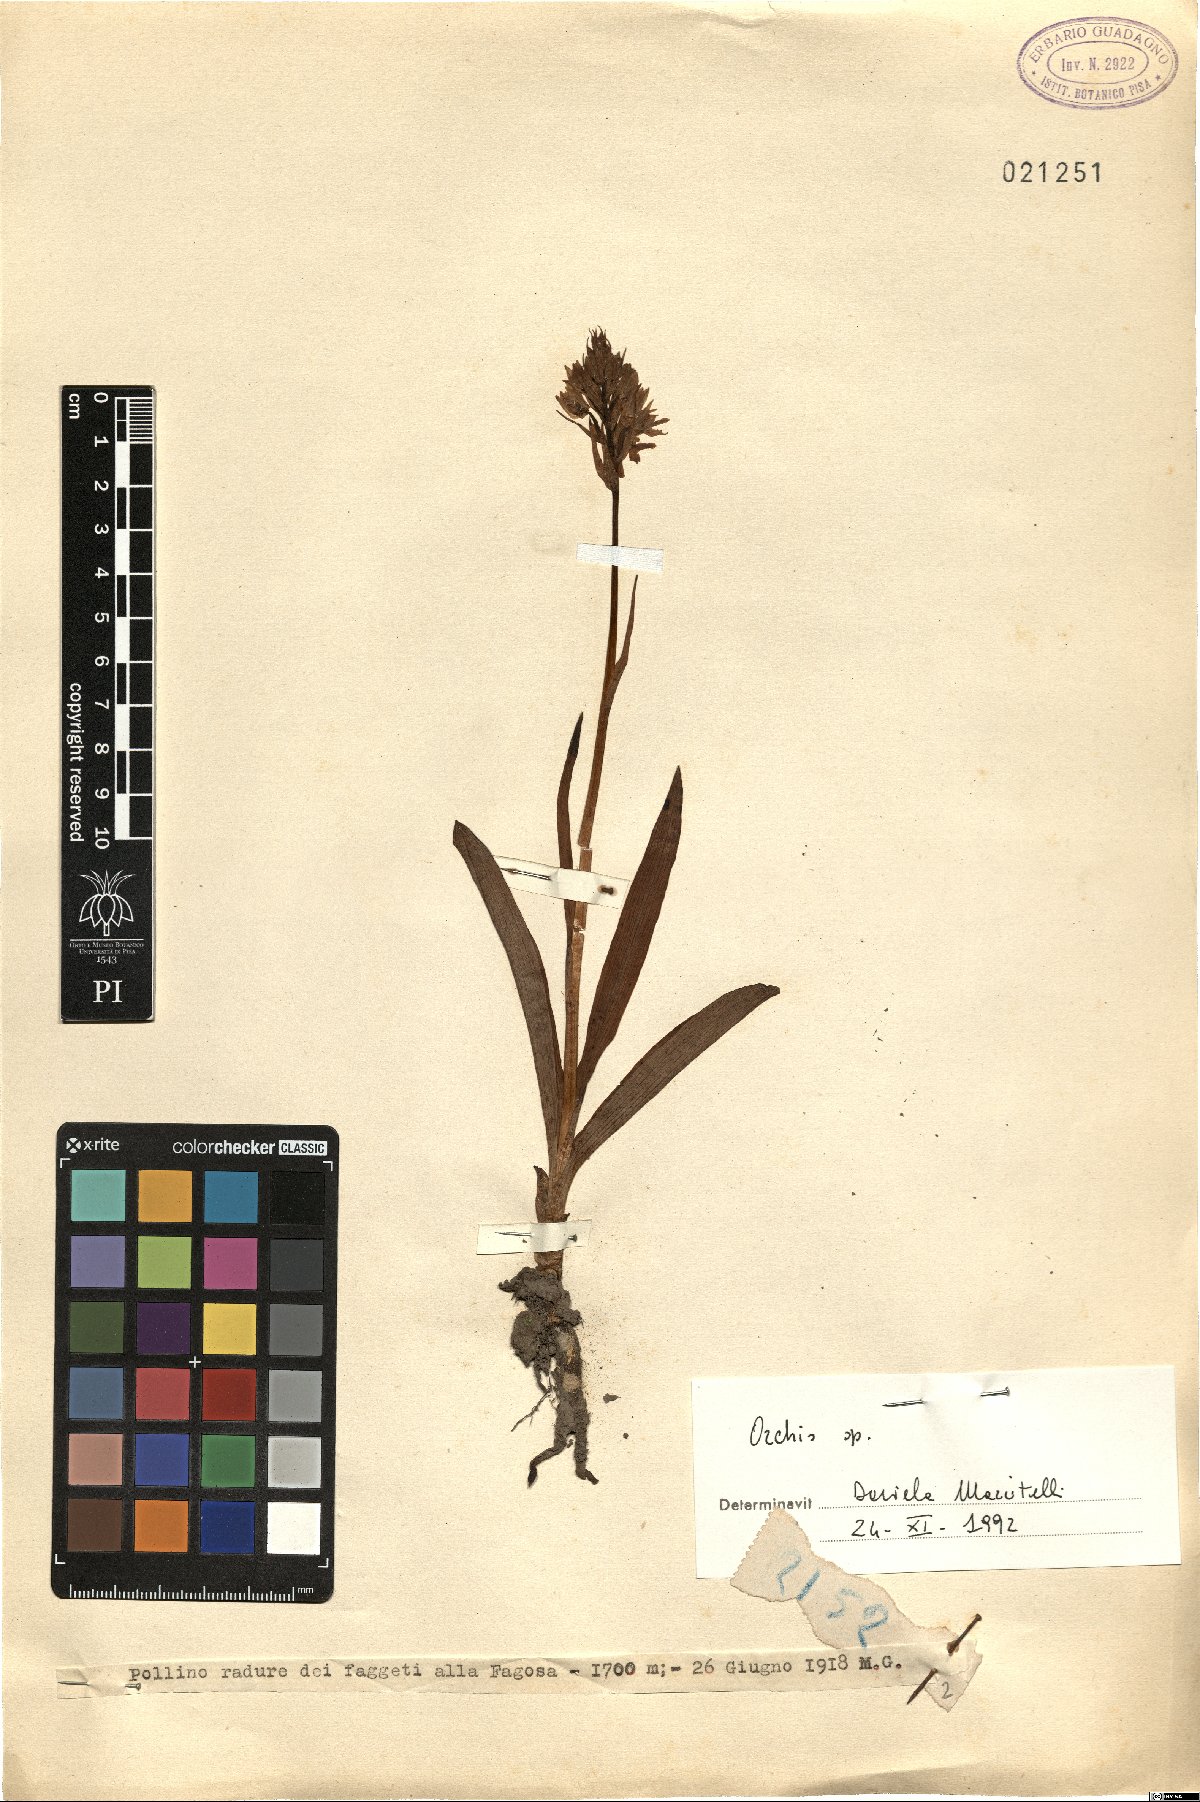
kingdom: Plantae
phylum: Tracheophyta
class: Liliopsida
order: Asparagales
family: Orchidaceae
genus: Orchis
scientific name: Orchis
